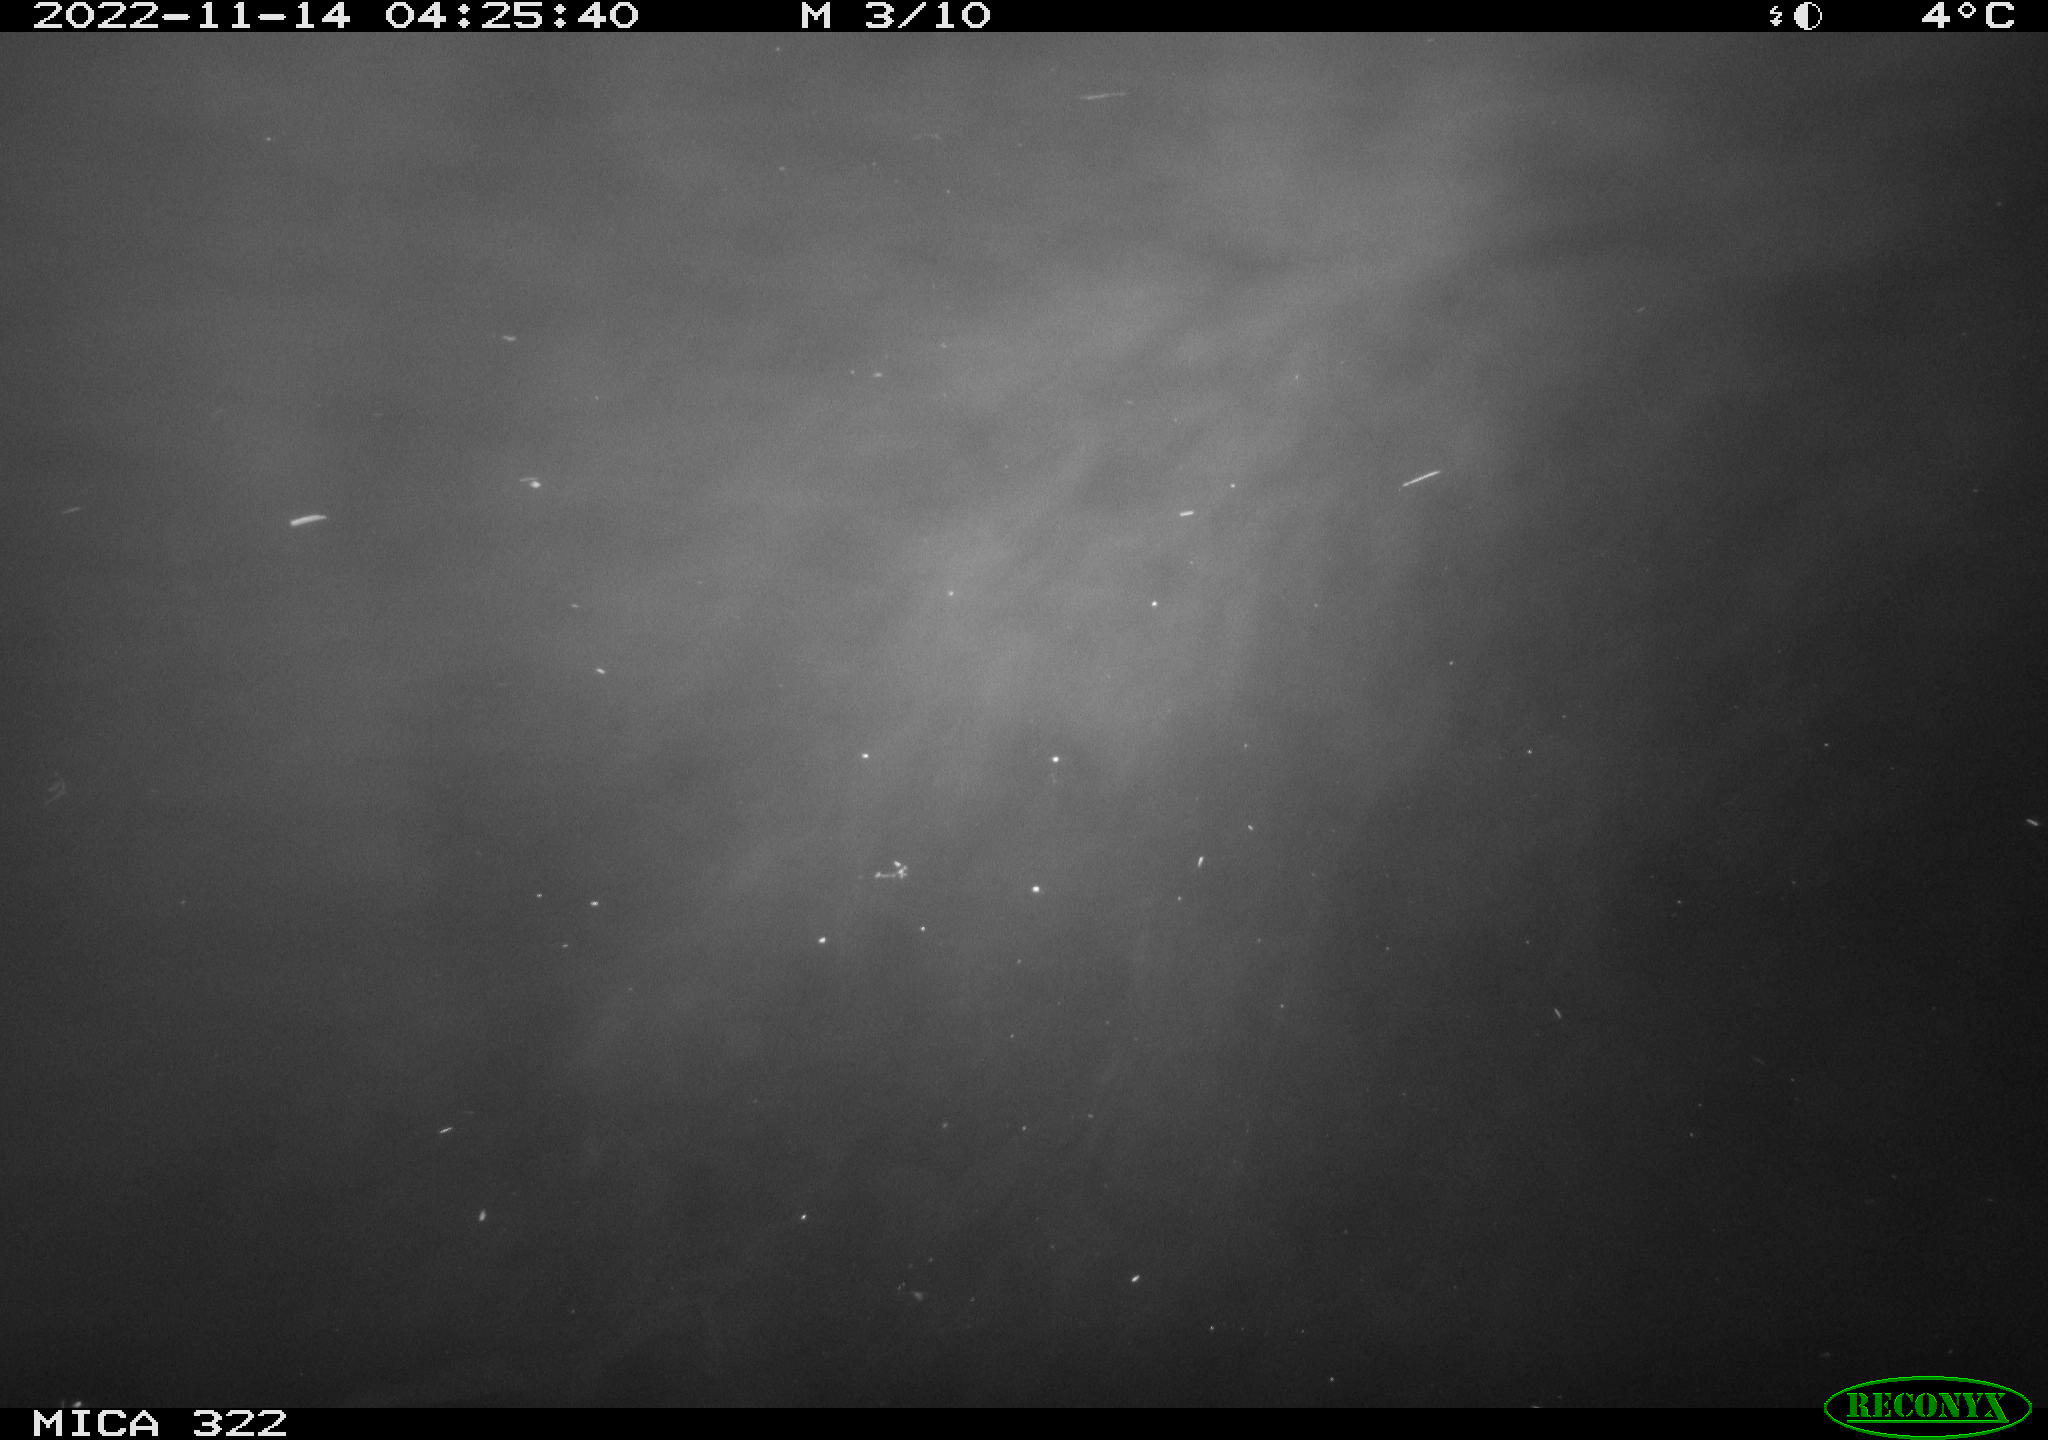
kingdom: Animalia
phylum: Chordata
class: Mammalia
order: Rodentia
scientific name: Rodentia
